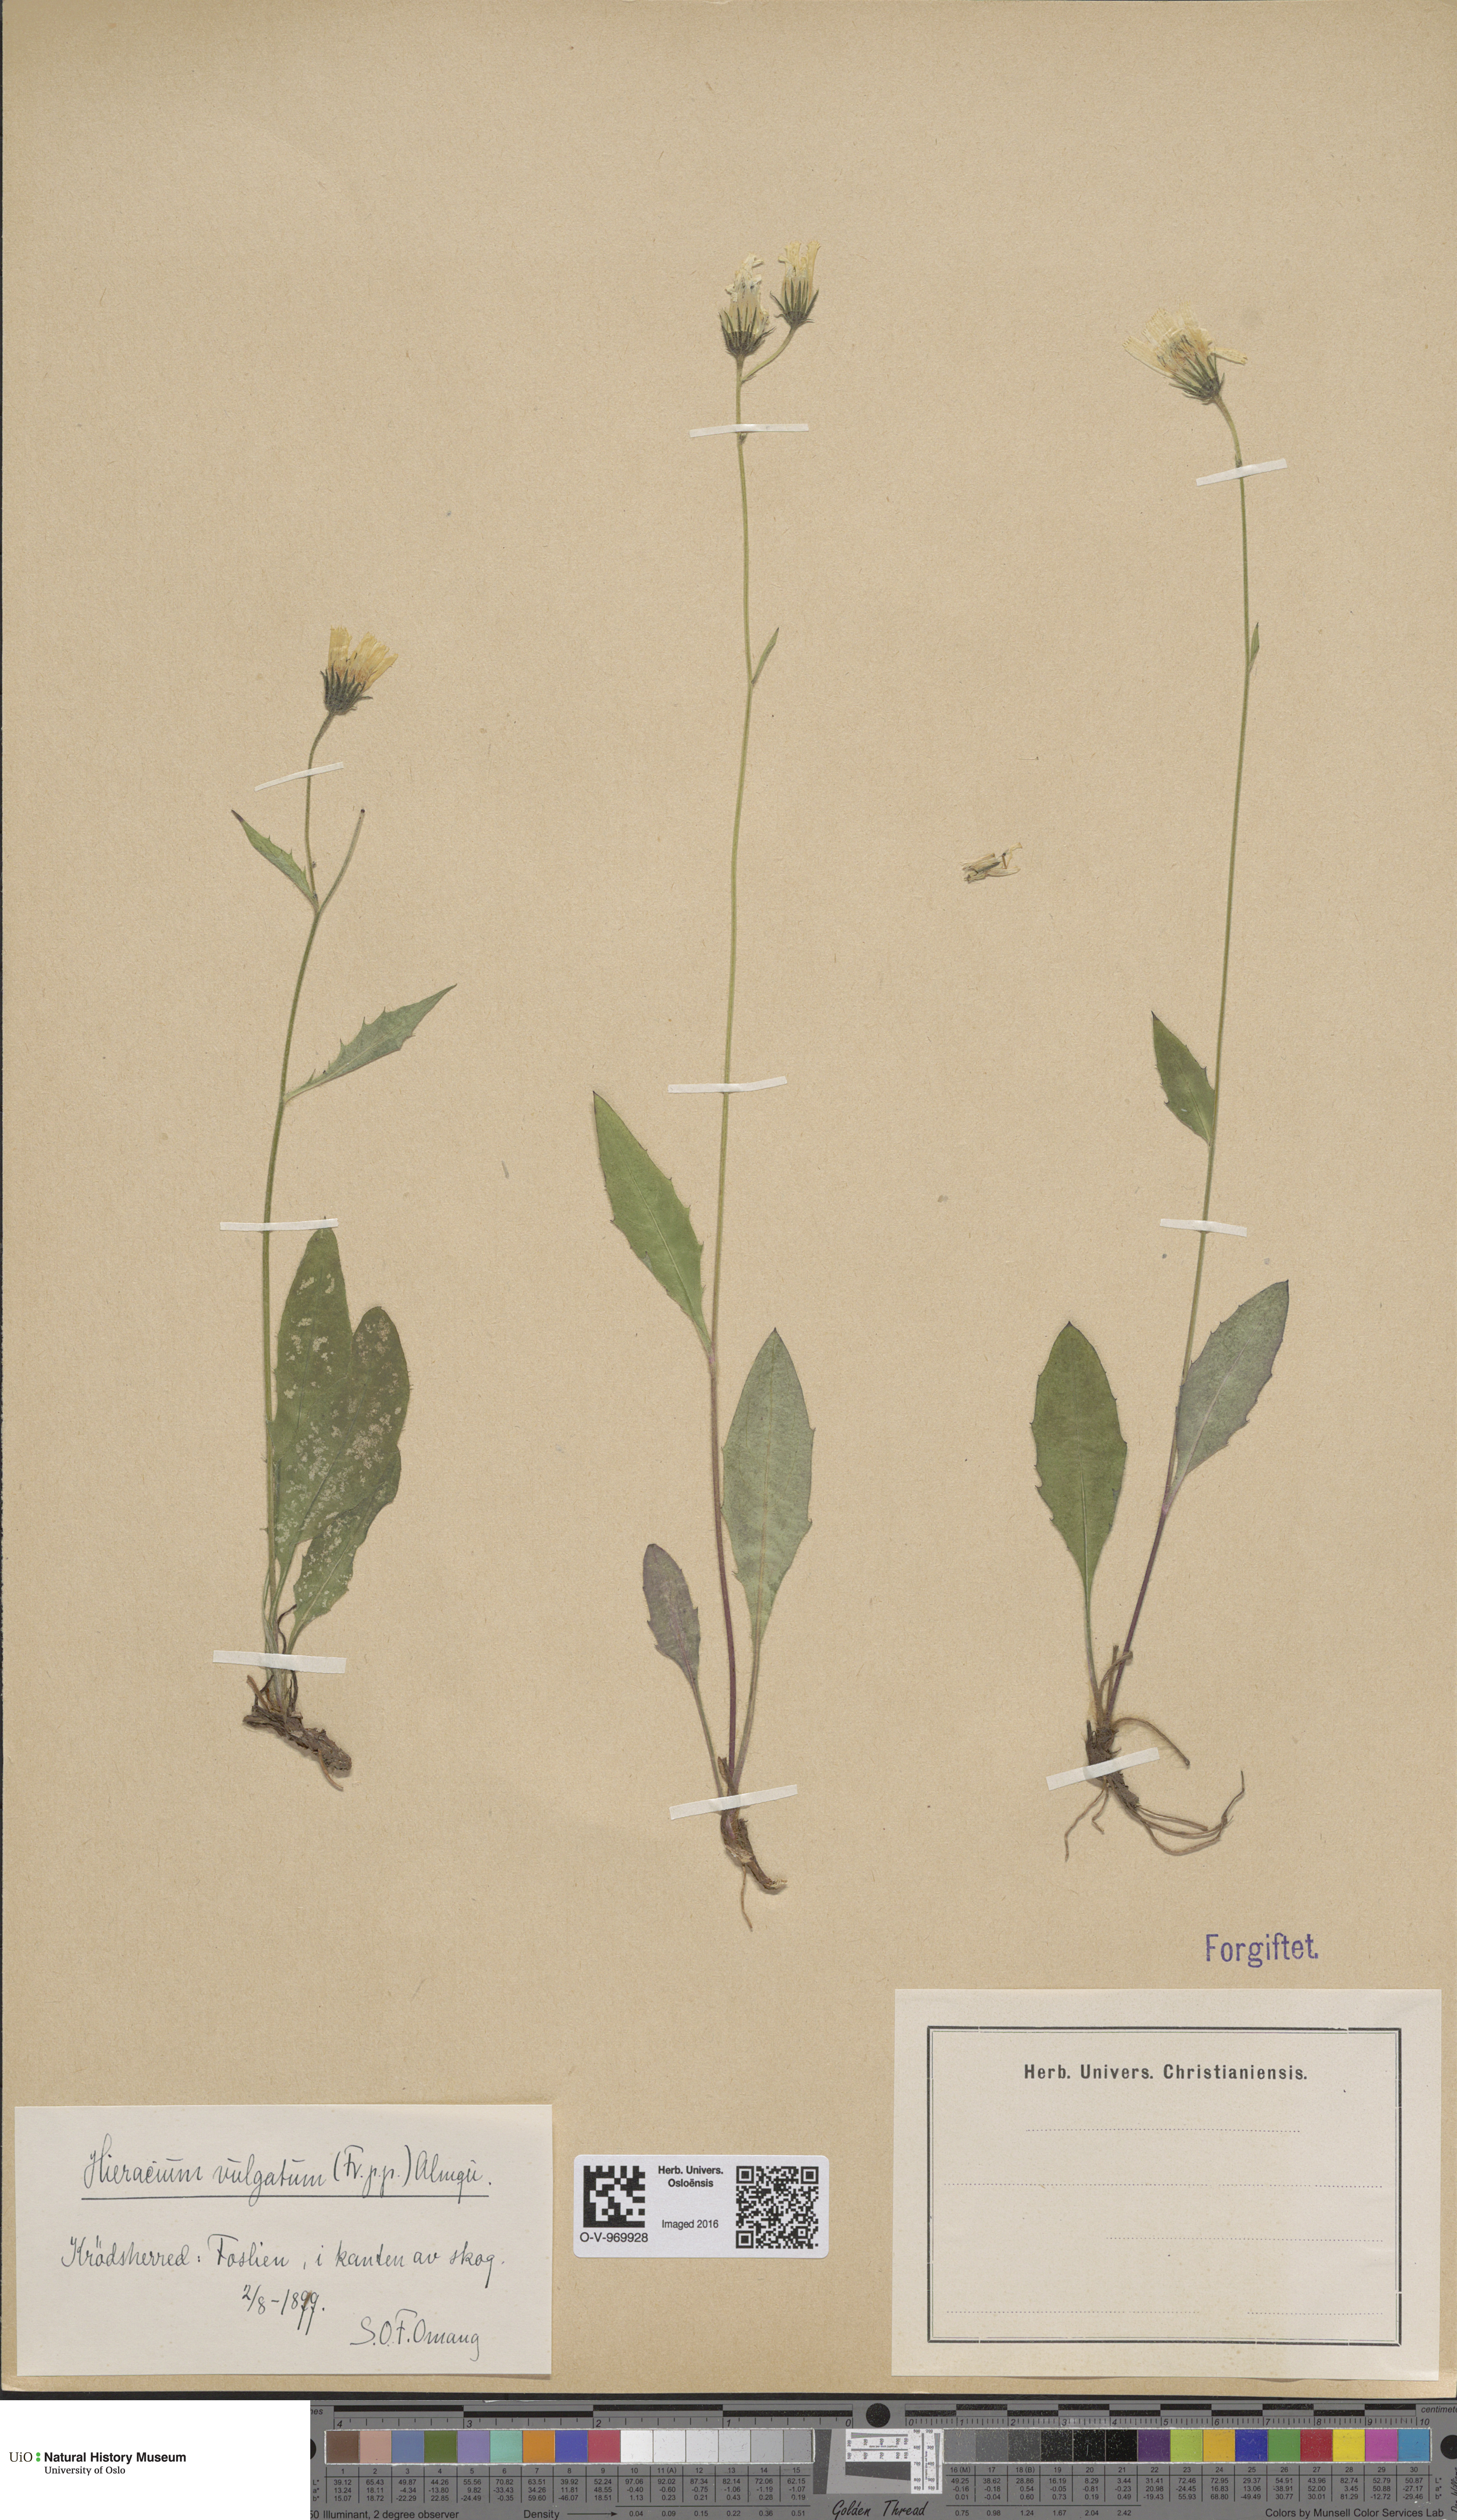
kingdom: Plantae
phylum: Tracheophyta
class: Magnoliopsida
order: Asterales
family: Asteraceae
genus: Hieracium
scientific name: Hieracium vulgatum
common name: Common hawkweed
